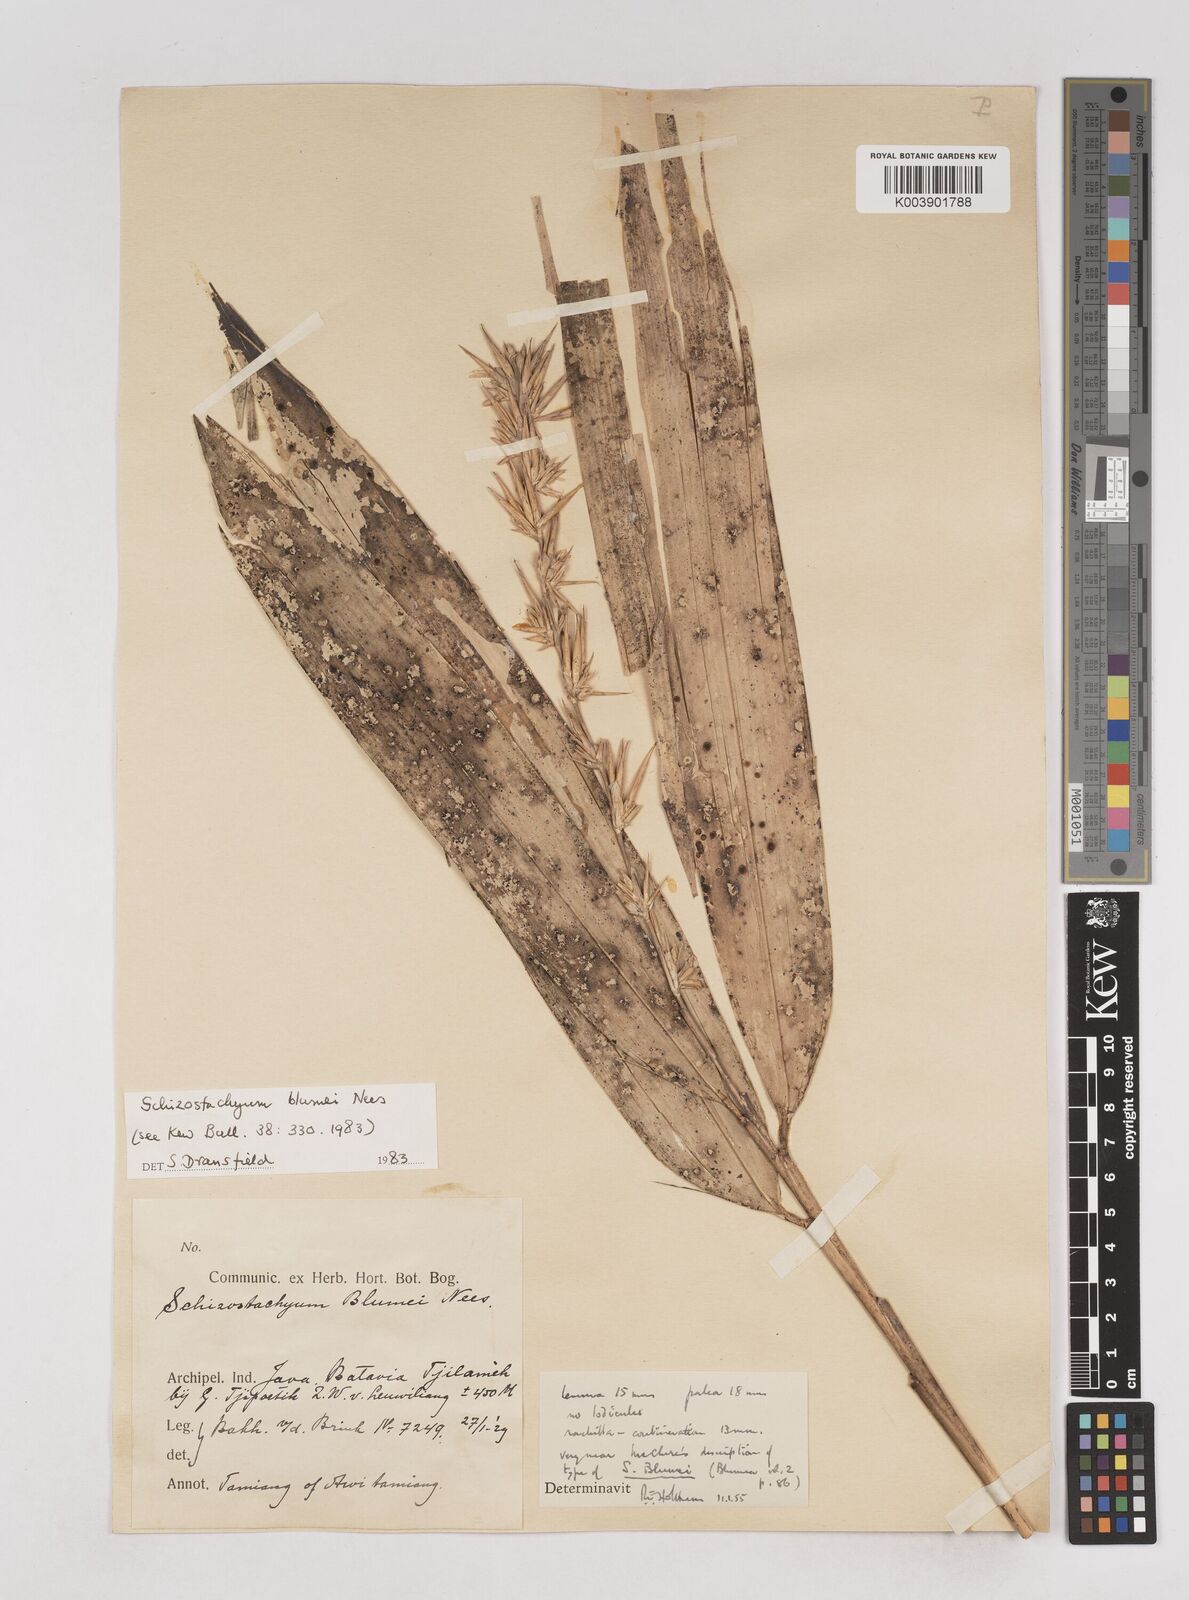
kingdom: Plantae
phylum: Tracheophyta
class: Liliopsida
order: Poales
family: Poaceae
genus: Schizostachyum
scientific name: Schizostachyum blumei
